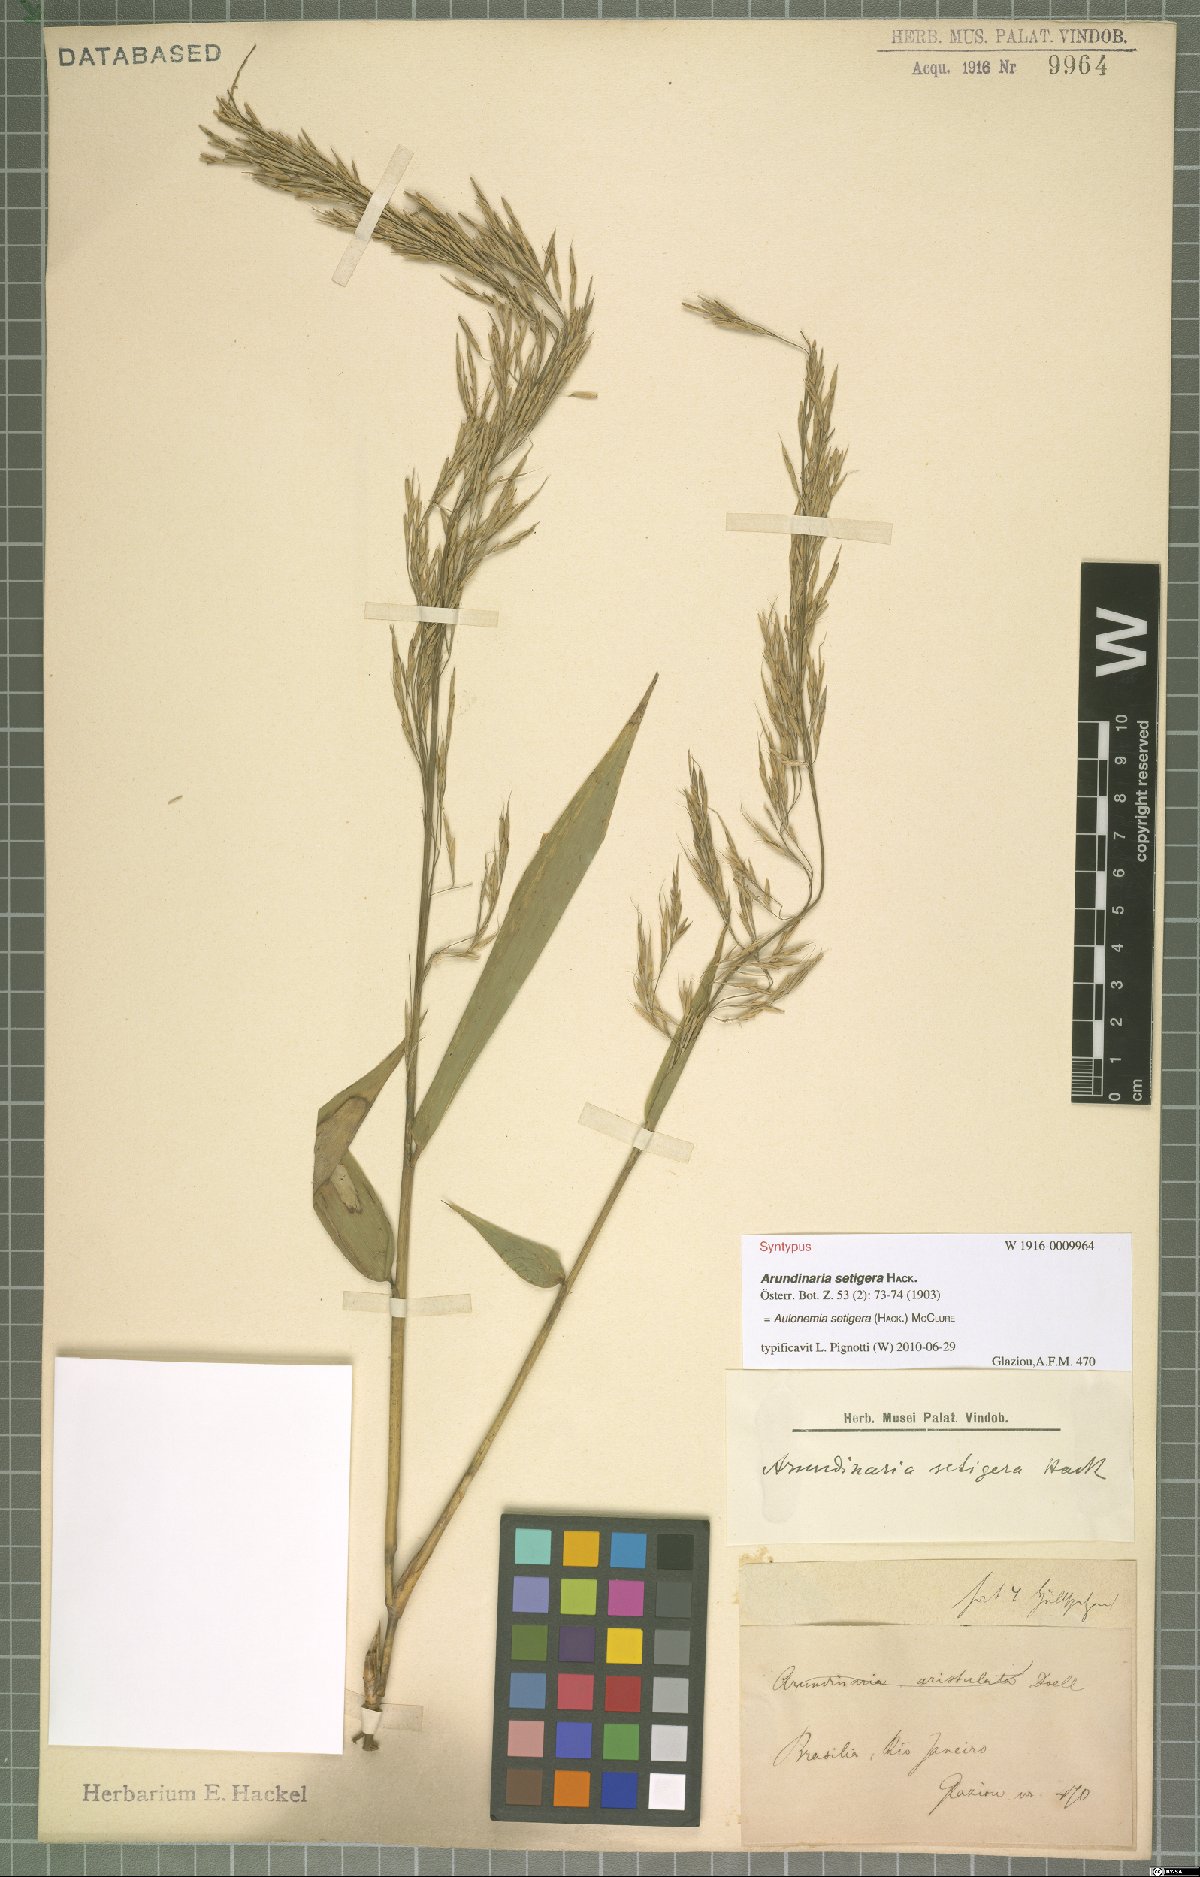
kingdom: Plantae
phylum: Tracheophyta
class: Liliopsida
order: Poales
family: Poaceae
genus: Aulonemia
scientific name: Aulonemia setigera
